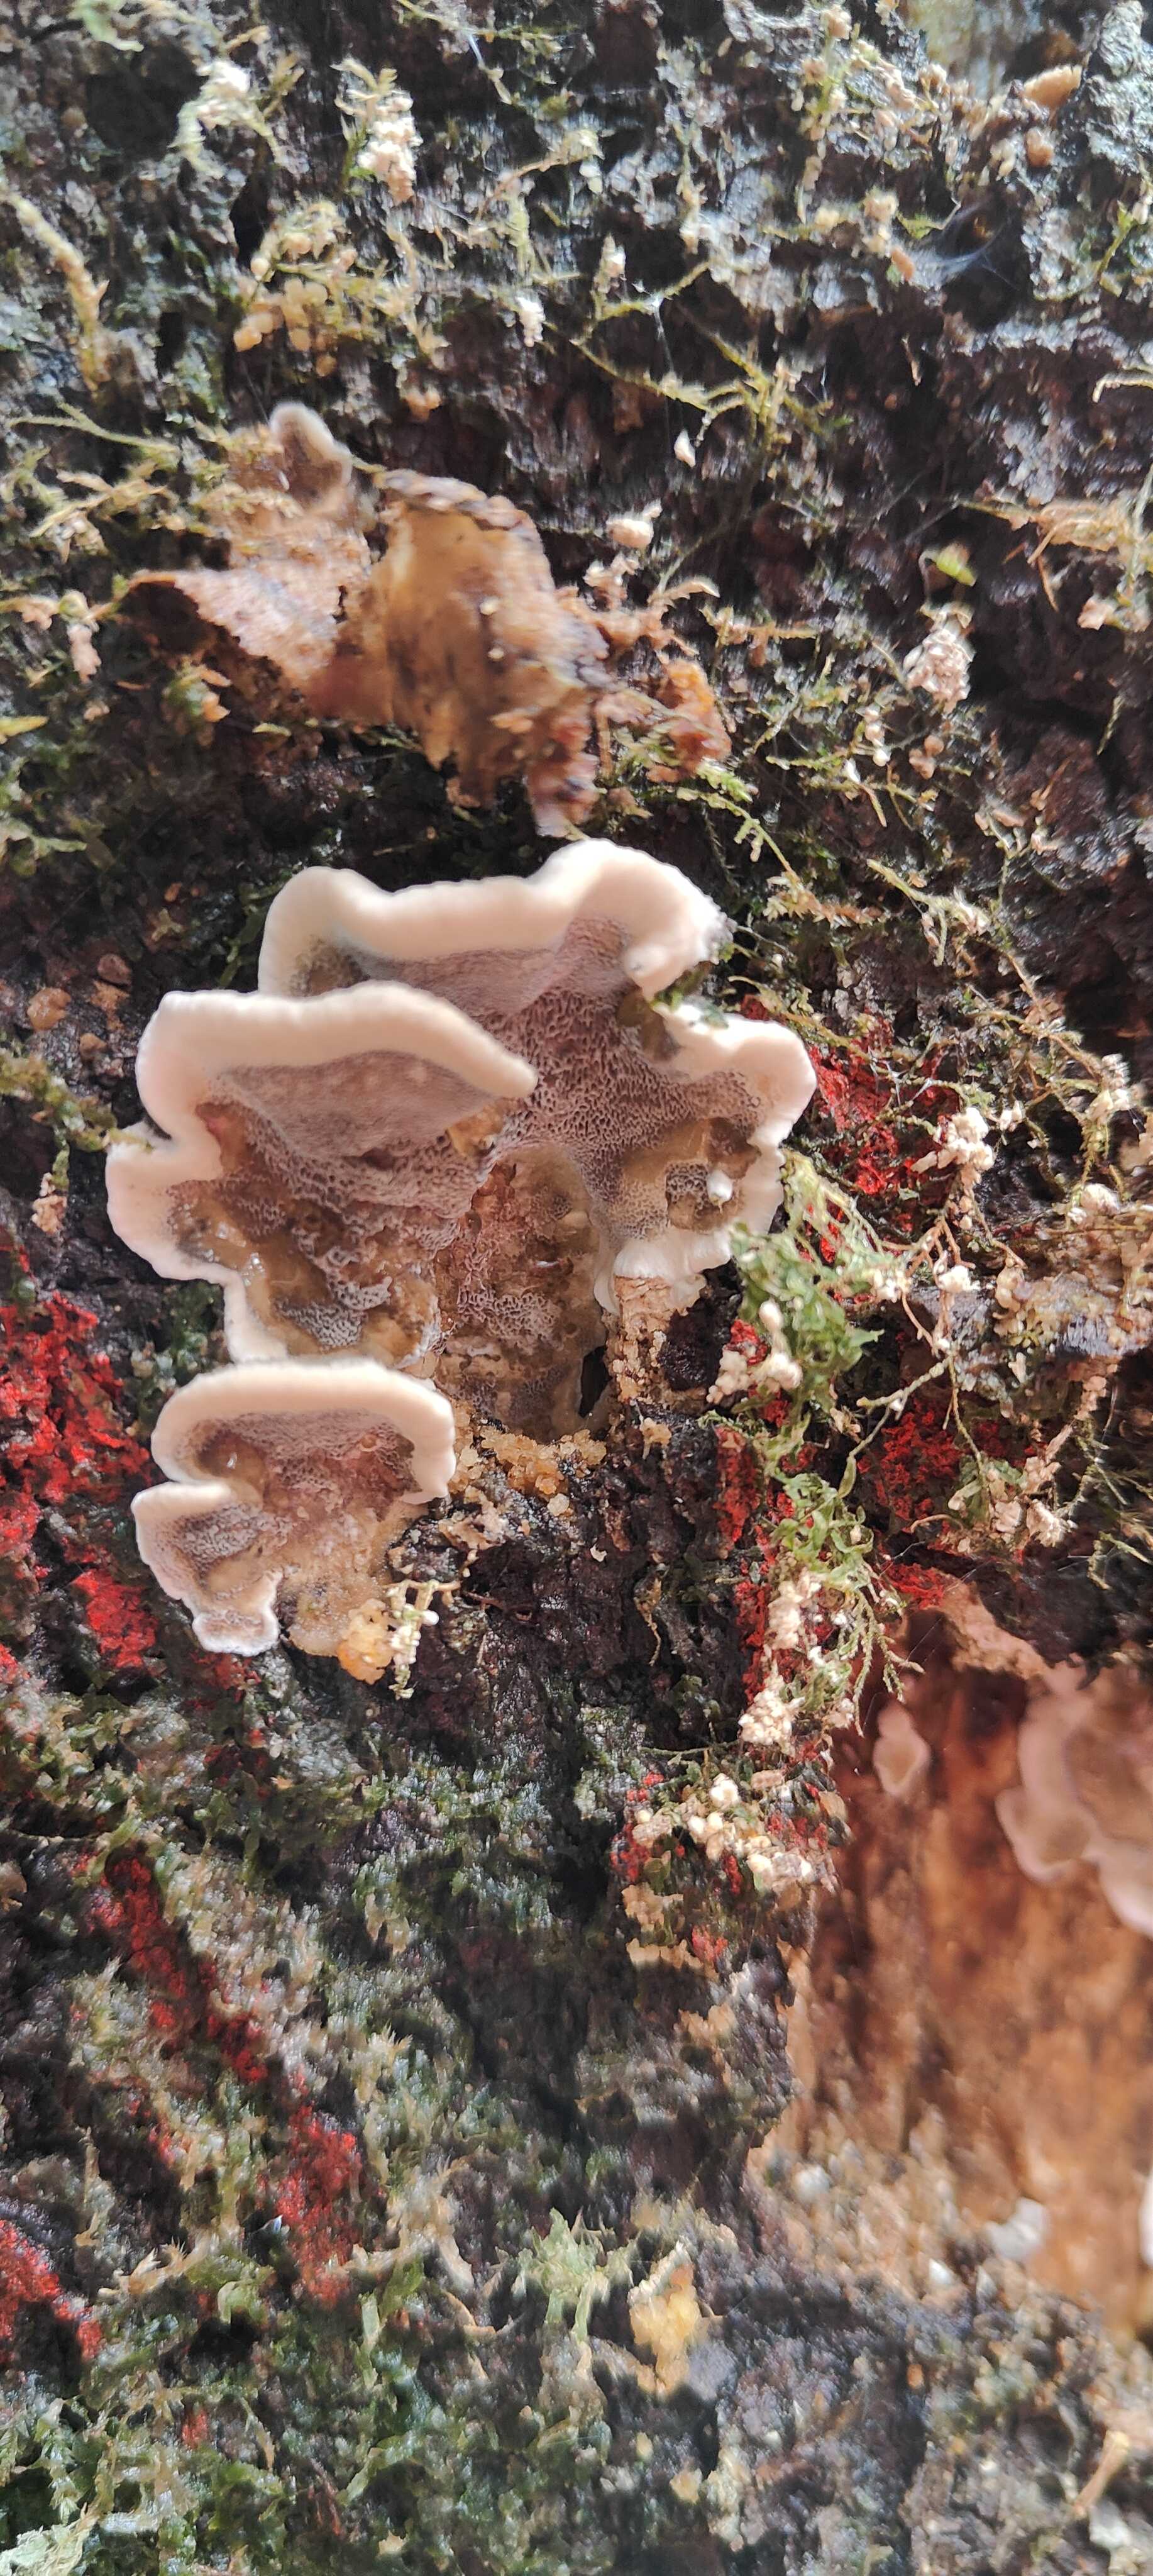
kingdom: Fungi
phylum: Basidiomycota
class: Agaricomycetes
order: Polyporales
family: Phanerochaetaceae
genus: Bjerkandera
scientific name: Bjerkandera adusta
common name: sveden sodporesvamp
